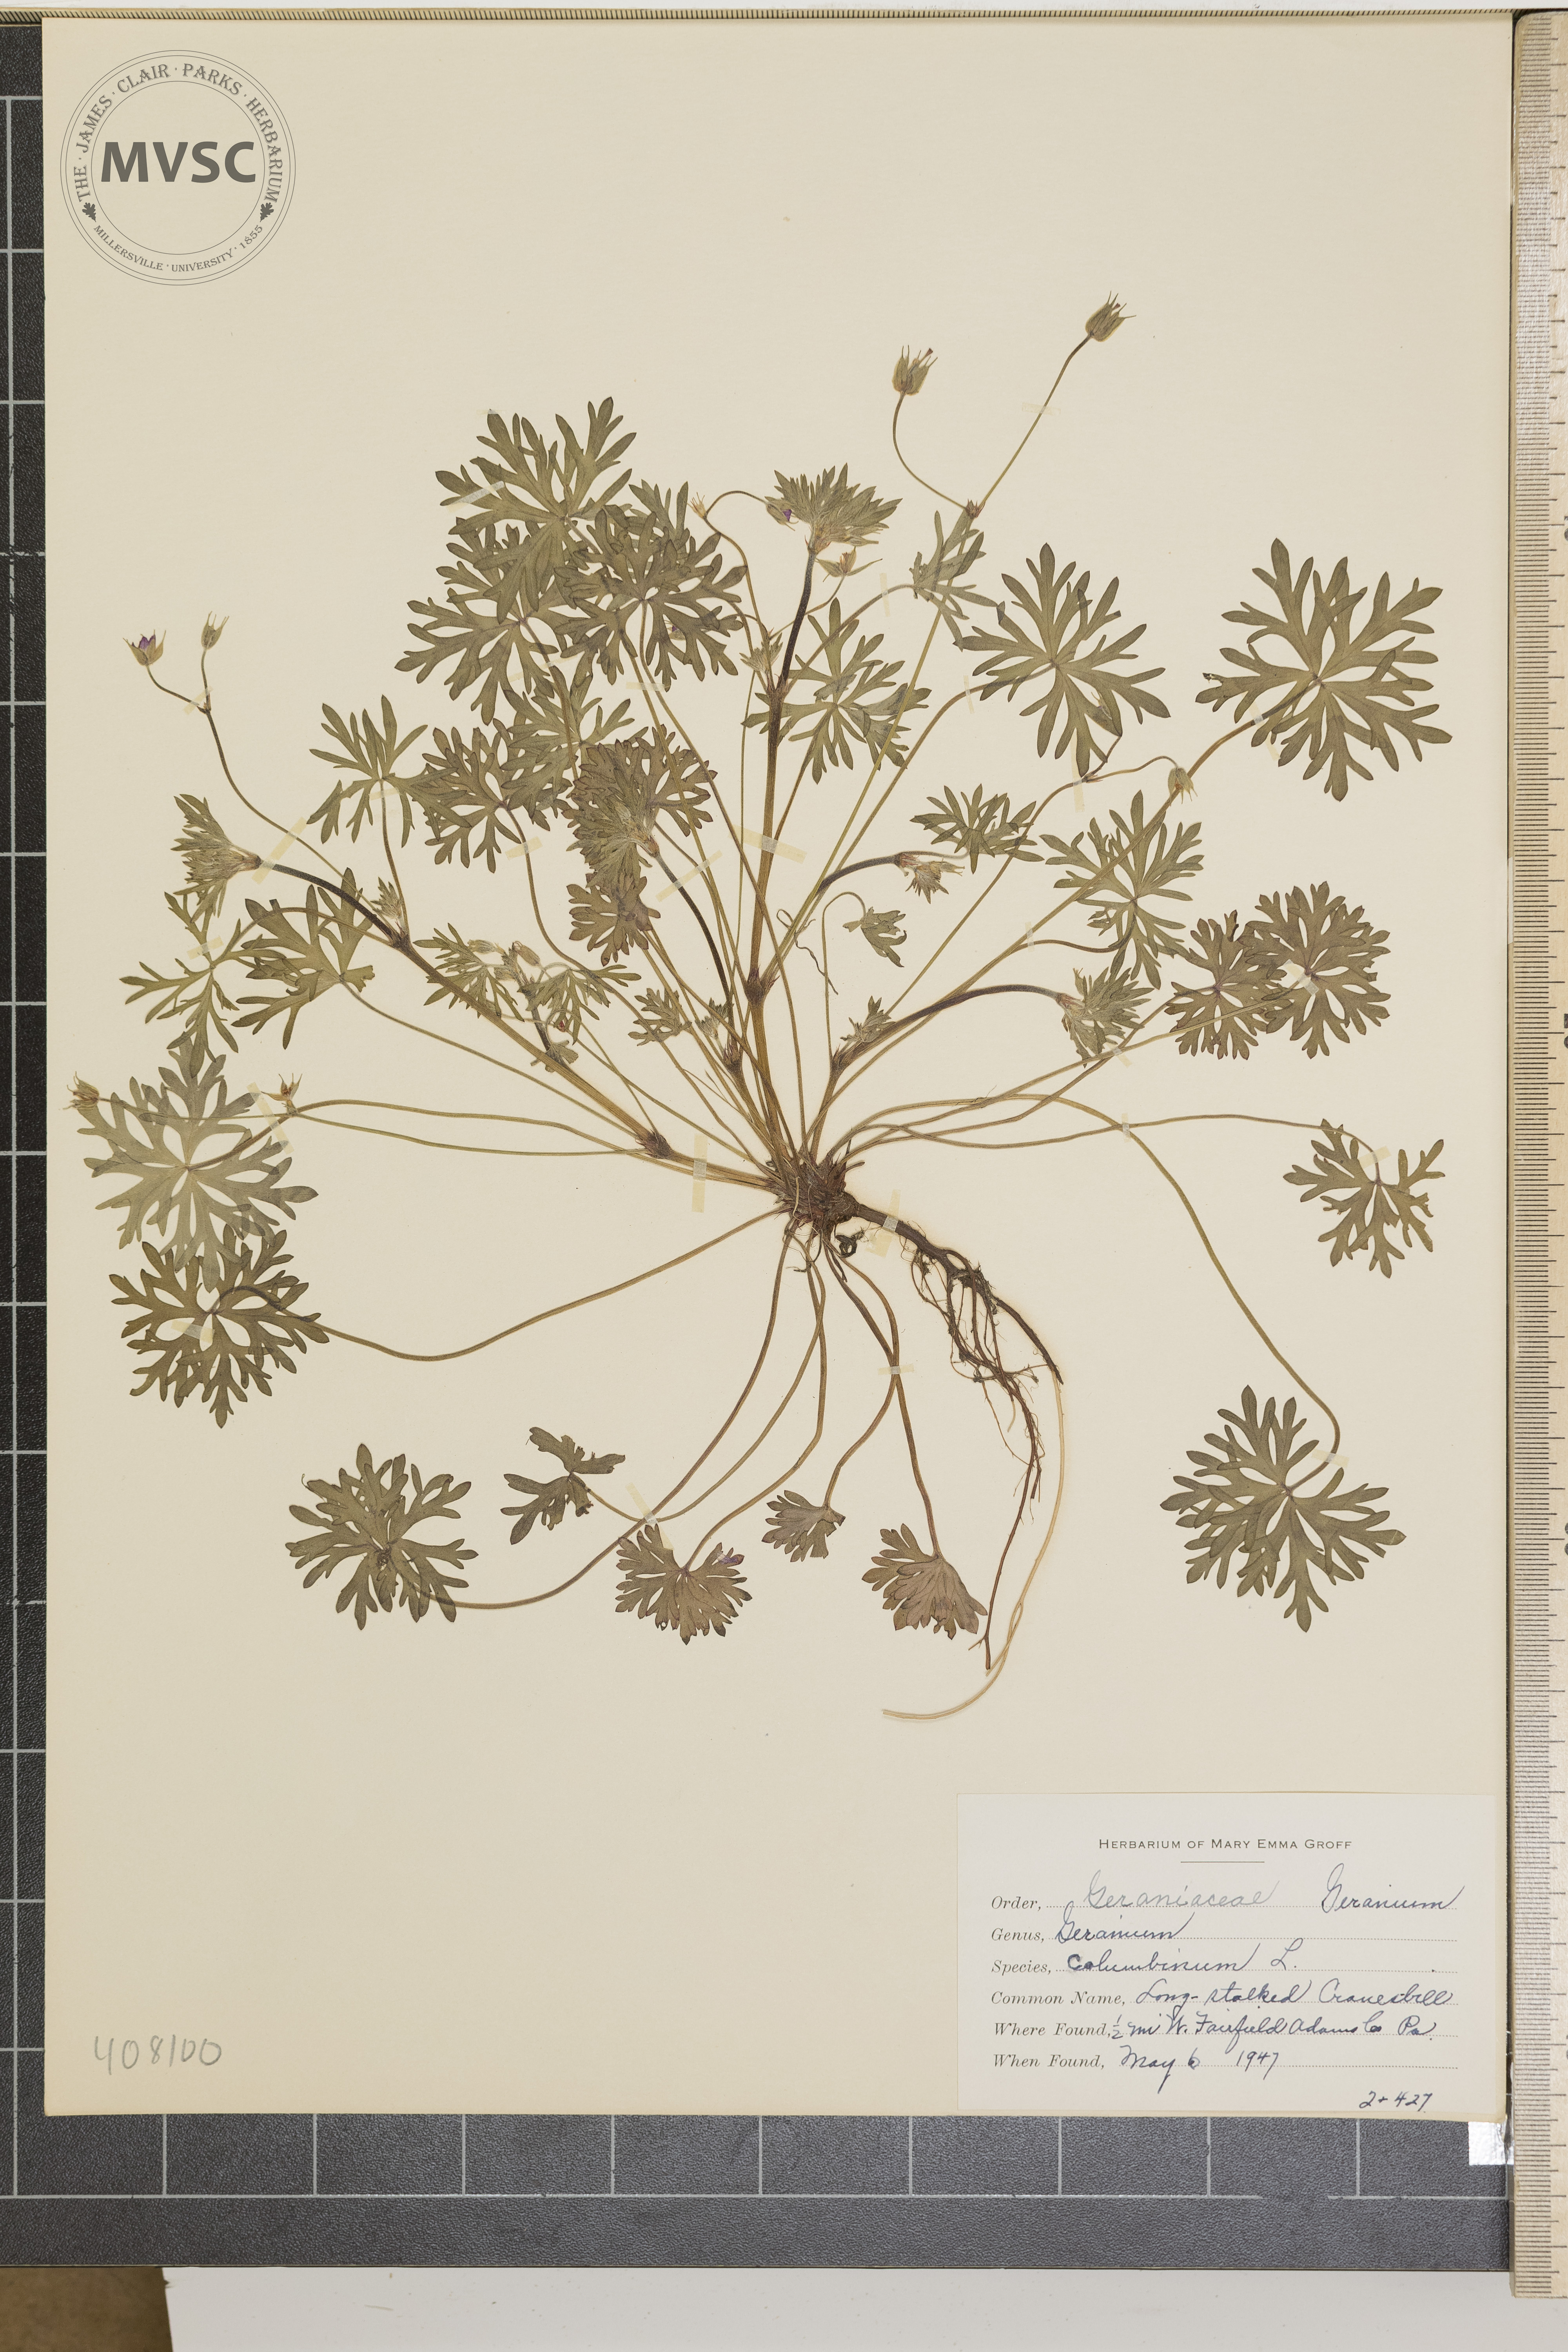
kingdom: Plantae
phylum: Tracheophyta
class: Magnoliopsida
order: Geraniales
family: Geraniaceae
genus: Geranium
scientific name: Geranium columbinum
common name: Long-stalked crane's-bill
